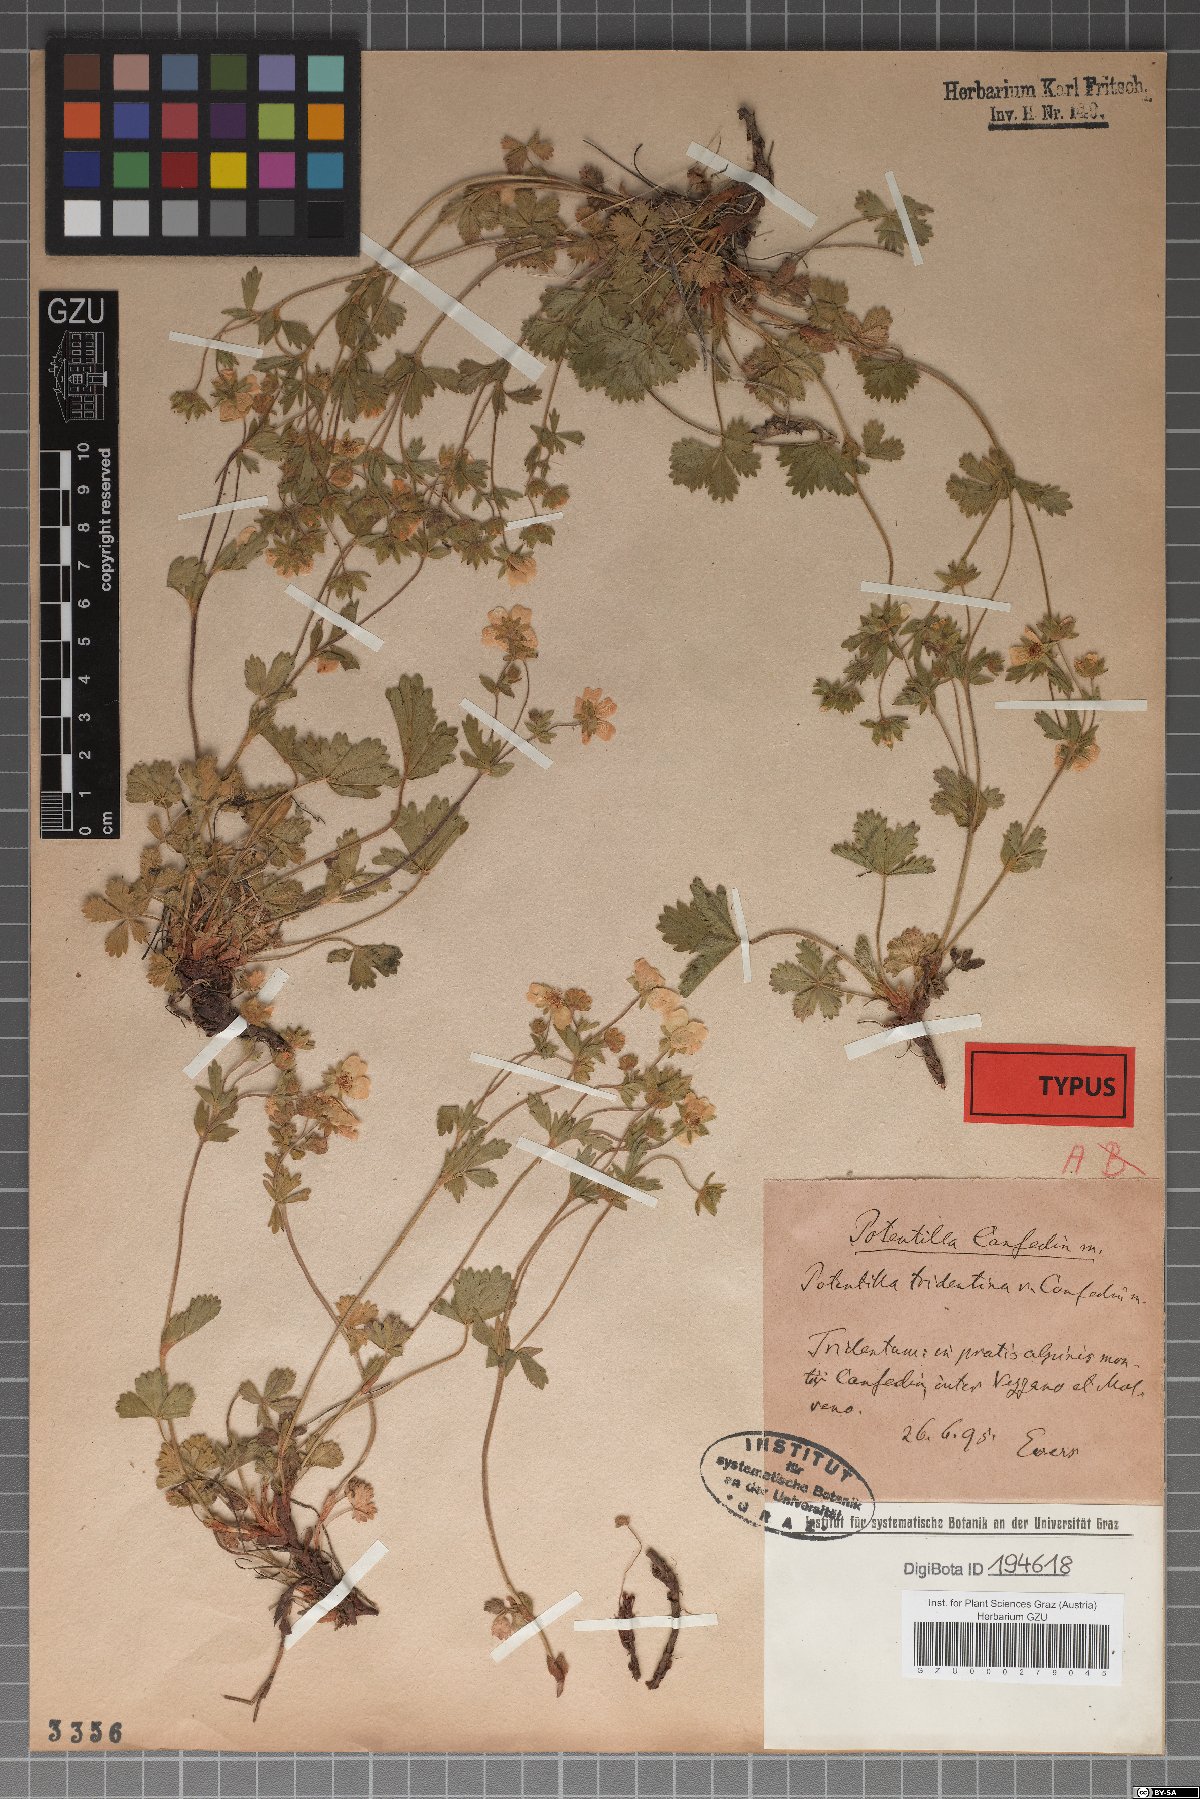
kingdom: Plantae
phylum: Tracheophyta
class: Magnoliopsida
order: Rosales
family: Rosaceae
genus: Potentilla
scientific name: Potentilla crantzii
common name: Alpine cinquefoil
